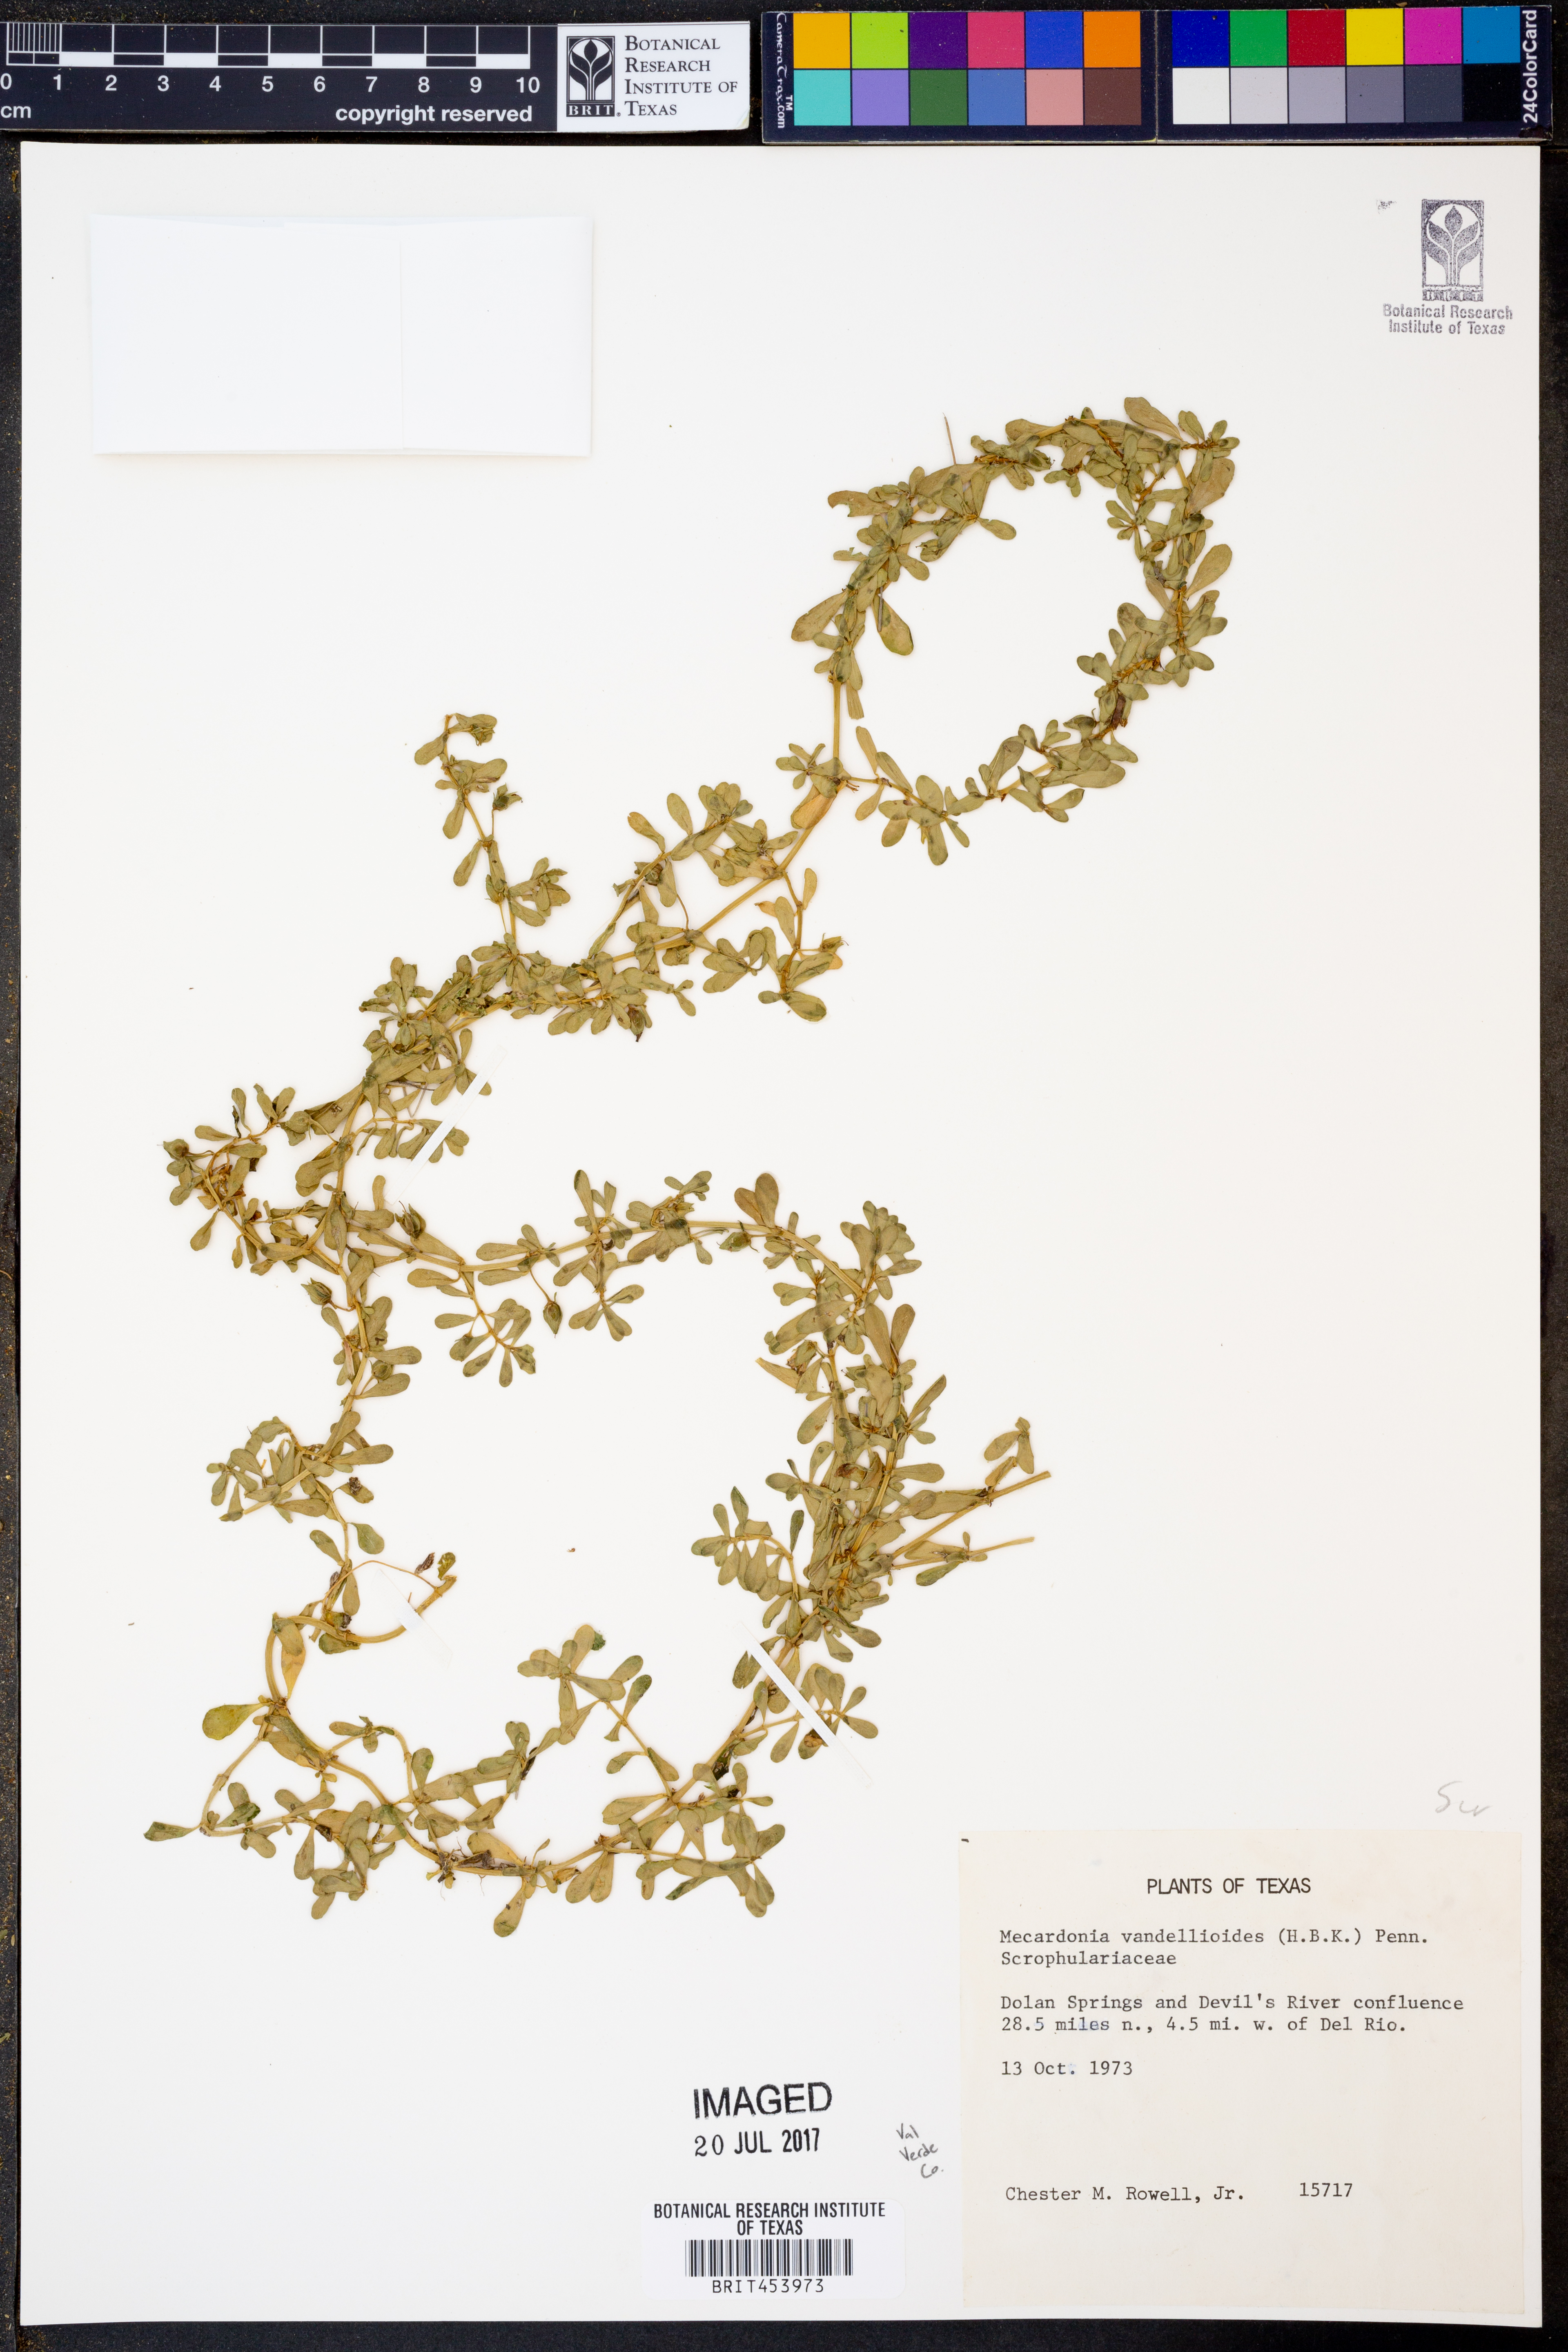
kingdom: Plantae
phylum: Tracheophyta
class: Magnoliopsida
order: Lamiales
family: Plantaginaceae
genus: Mecardonia
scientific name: Mecardonia procumbens
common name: Baby jump-up
